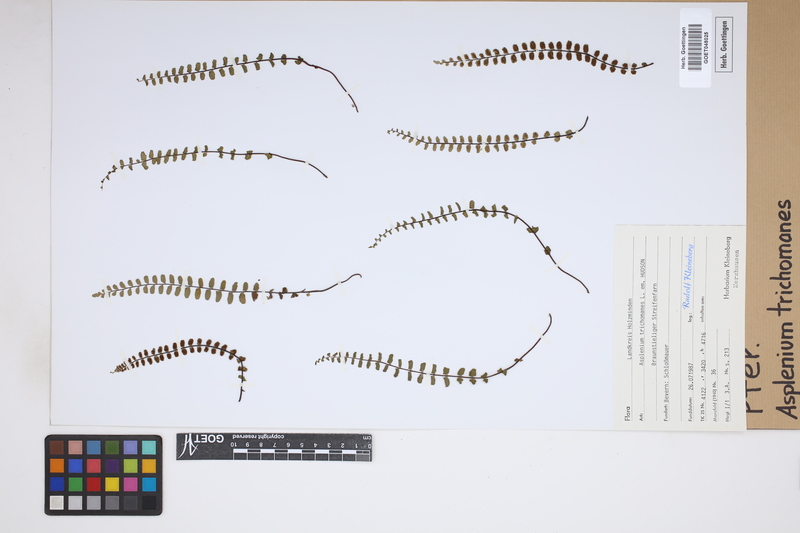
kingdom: Plantae
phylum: Tracheophyta
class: Polypodiopsida
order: Polypodiales
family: Aspleniaceae
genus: Asplenium
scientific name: Asplenium trichomanes
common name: Maidenhair spleenwort
